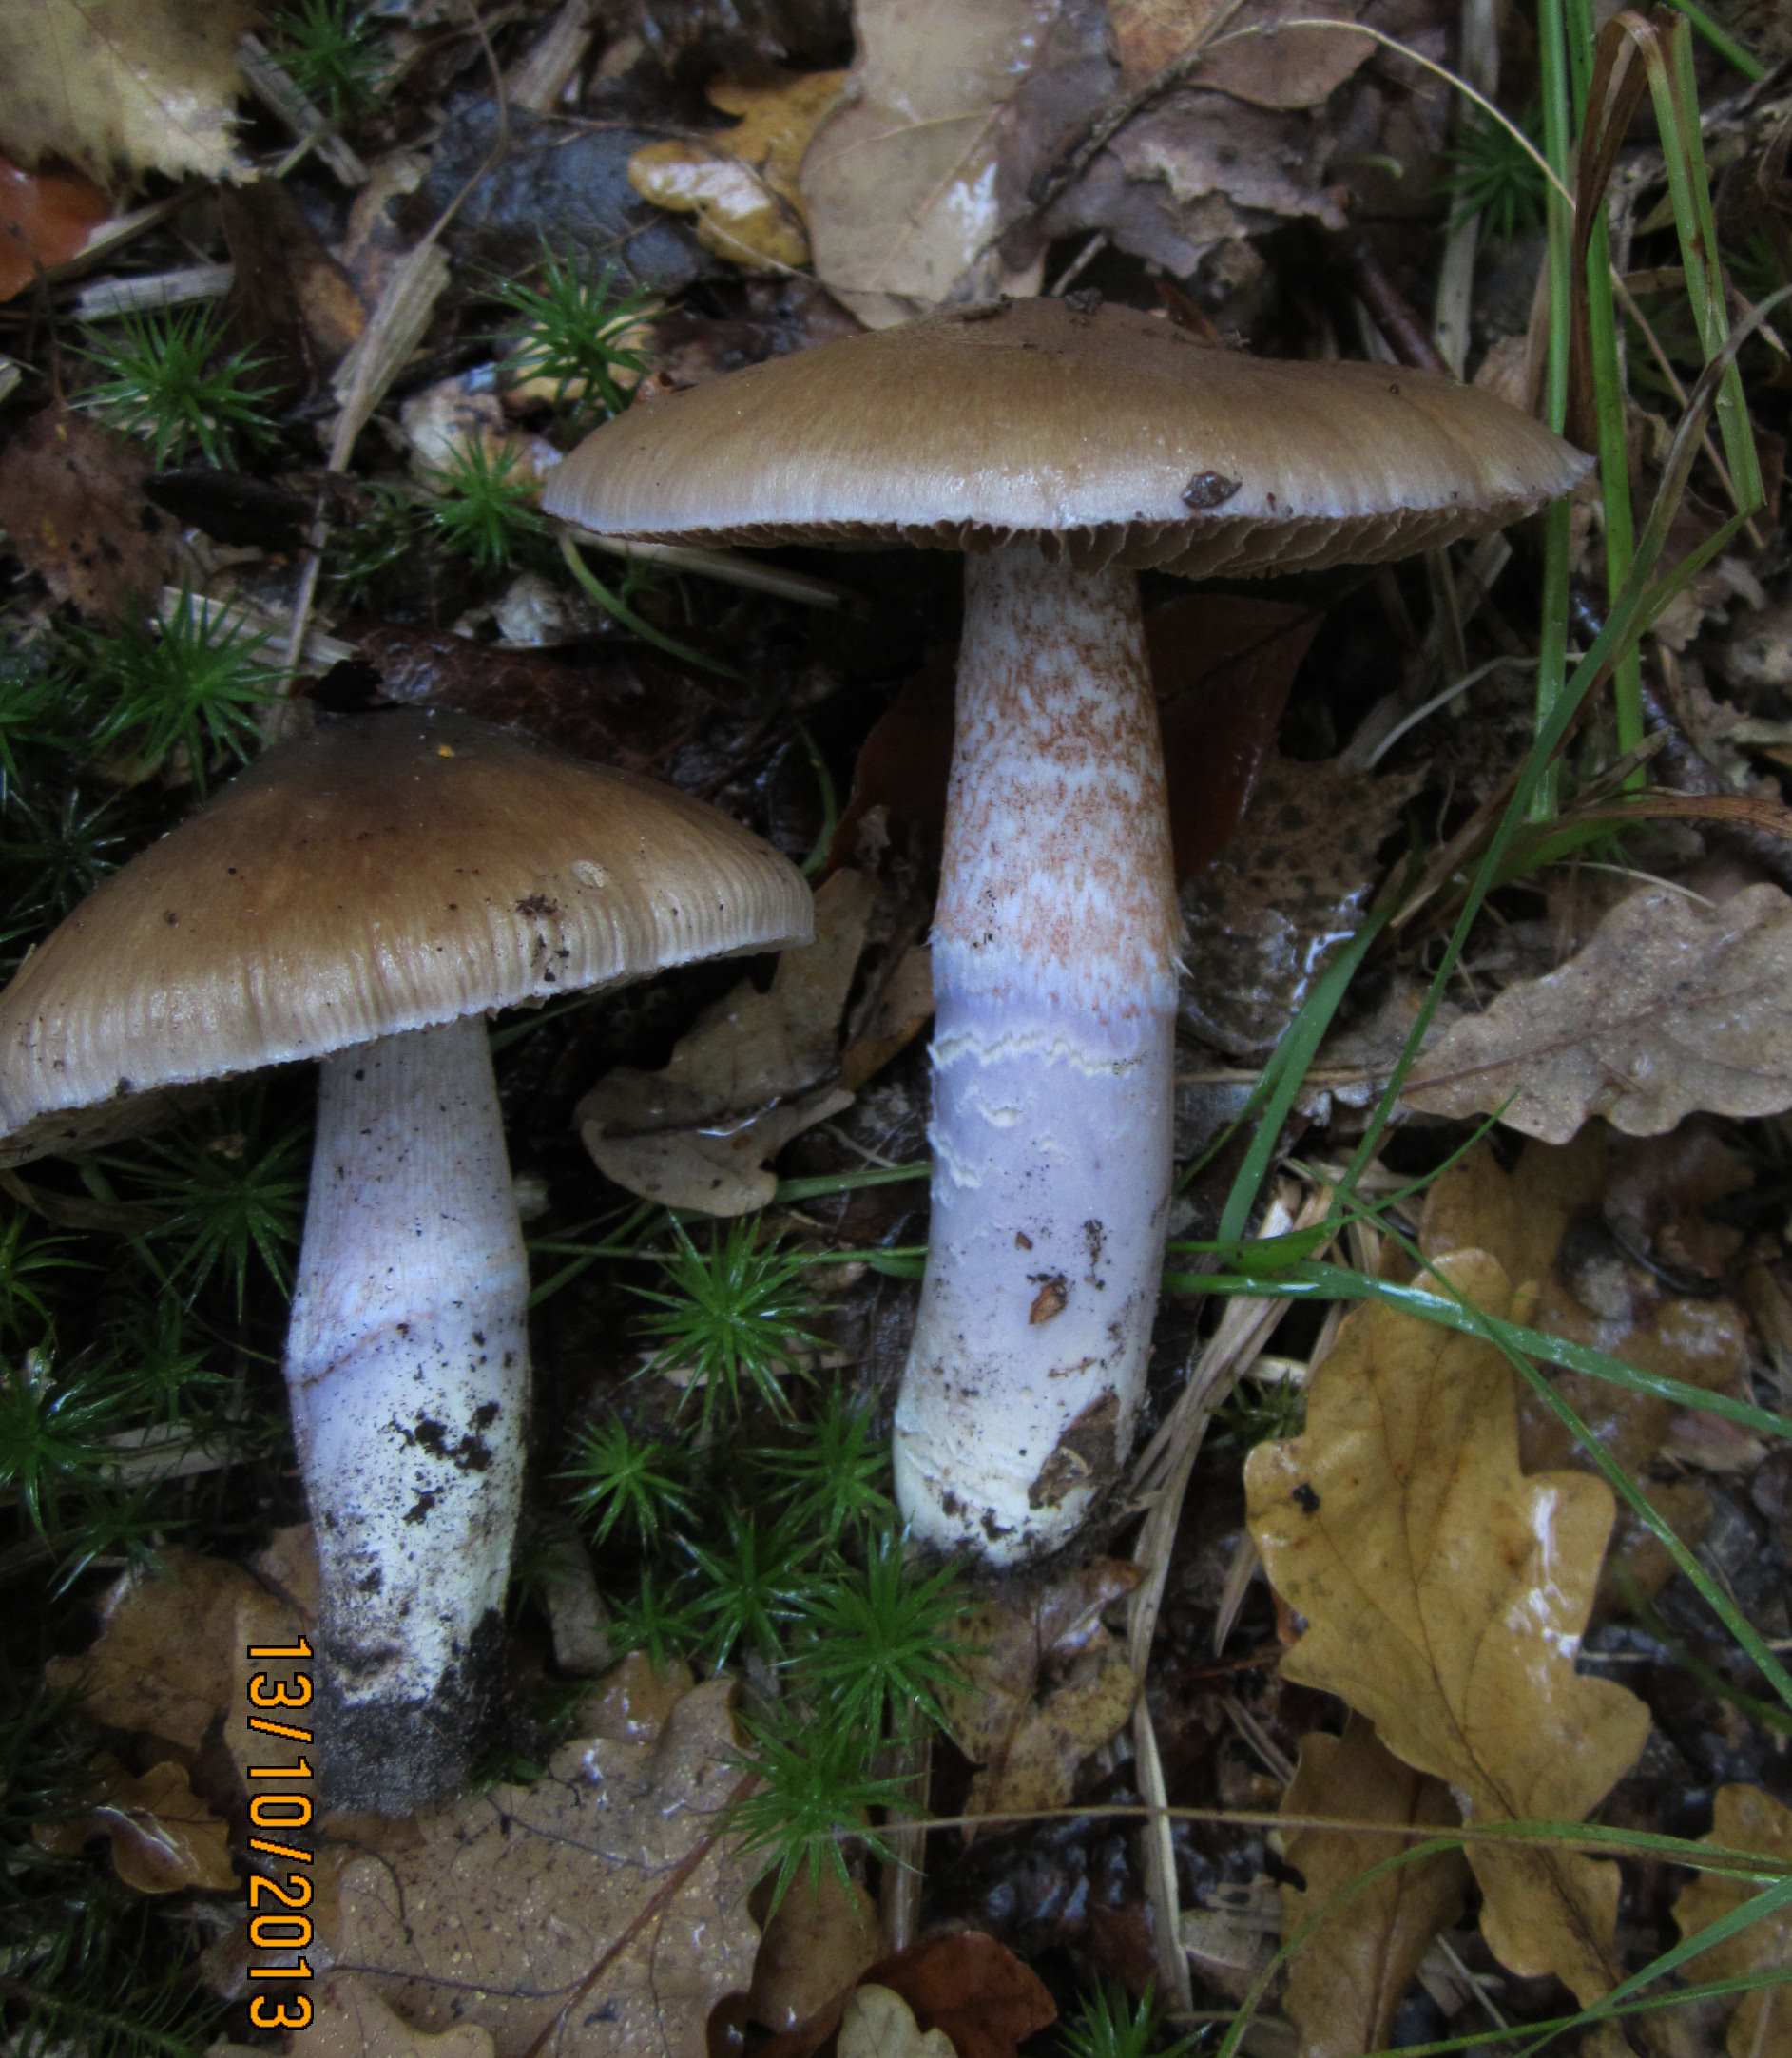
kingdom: Fungi
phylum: Basidiomycota
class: Agaricomycetes
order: Agaricales
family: Cortinariaceae
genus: Cortinarius
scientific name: Cortinarius elatior
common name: høj slørhat
